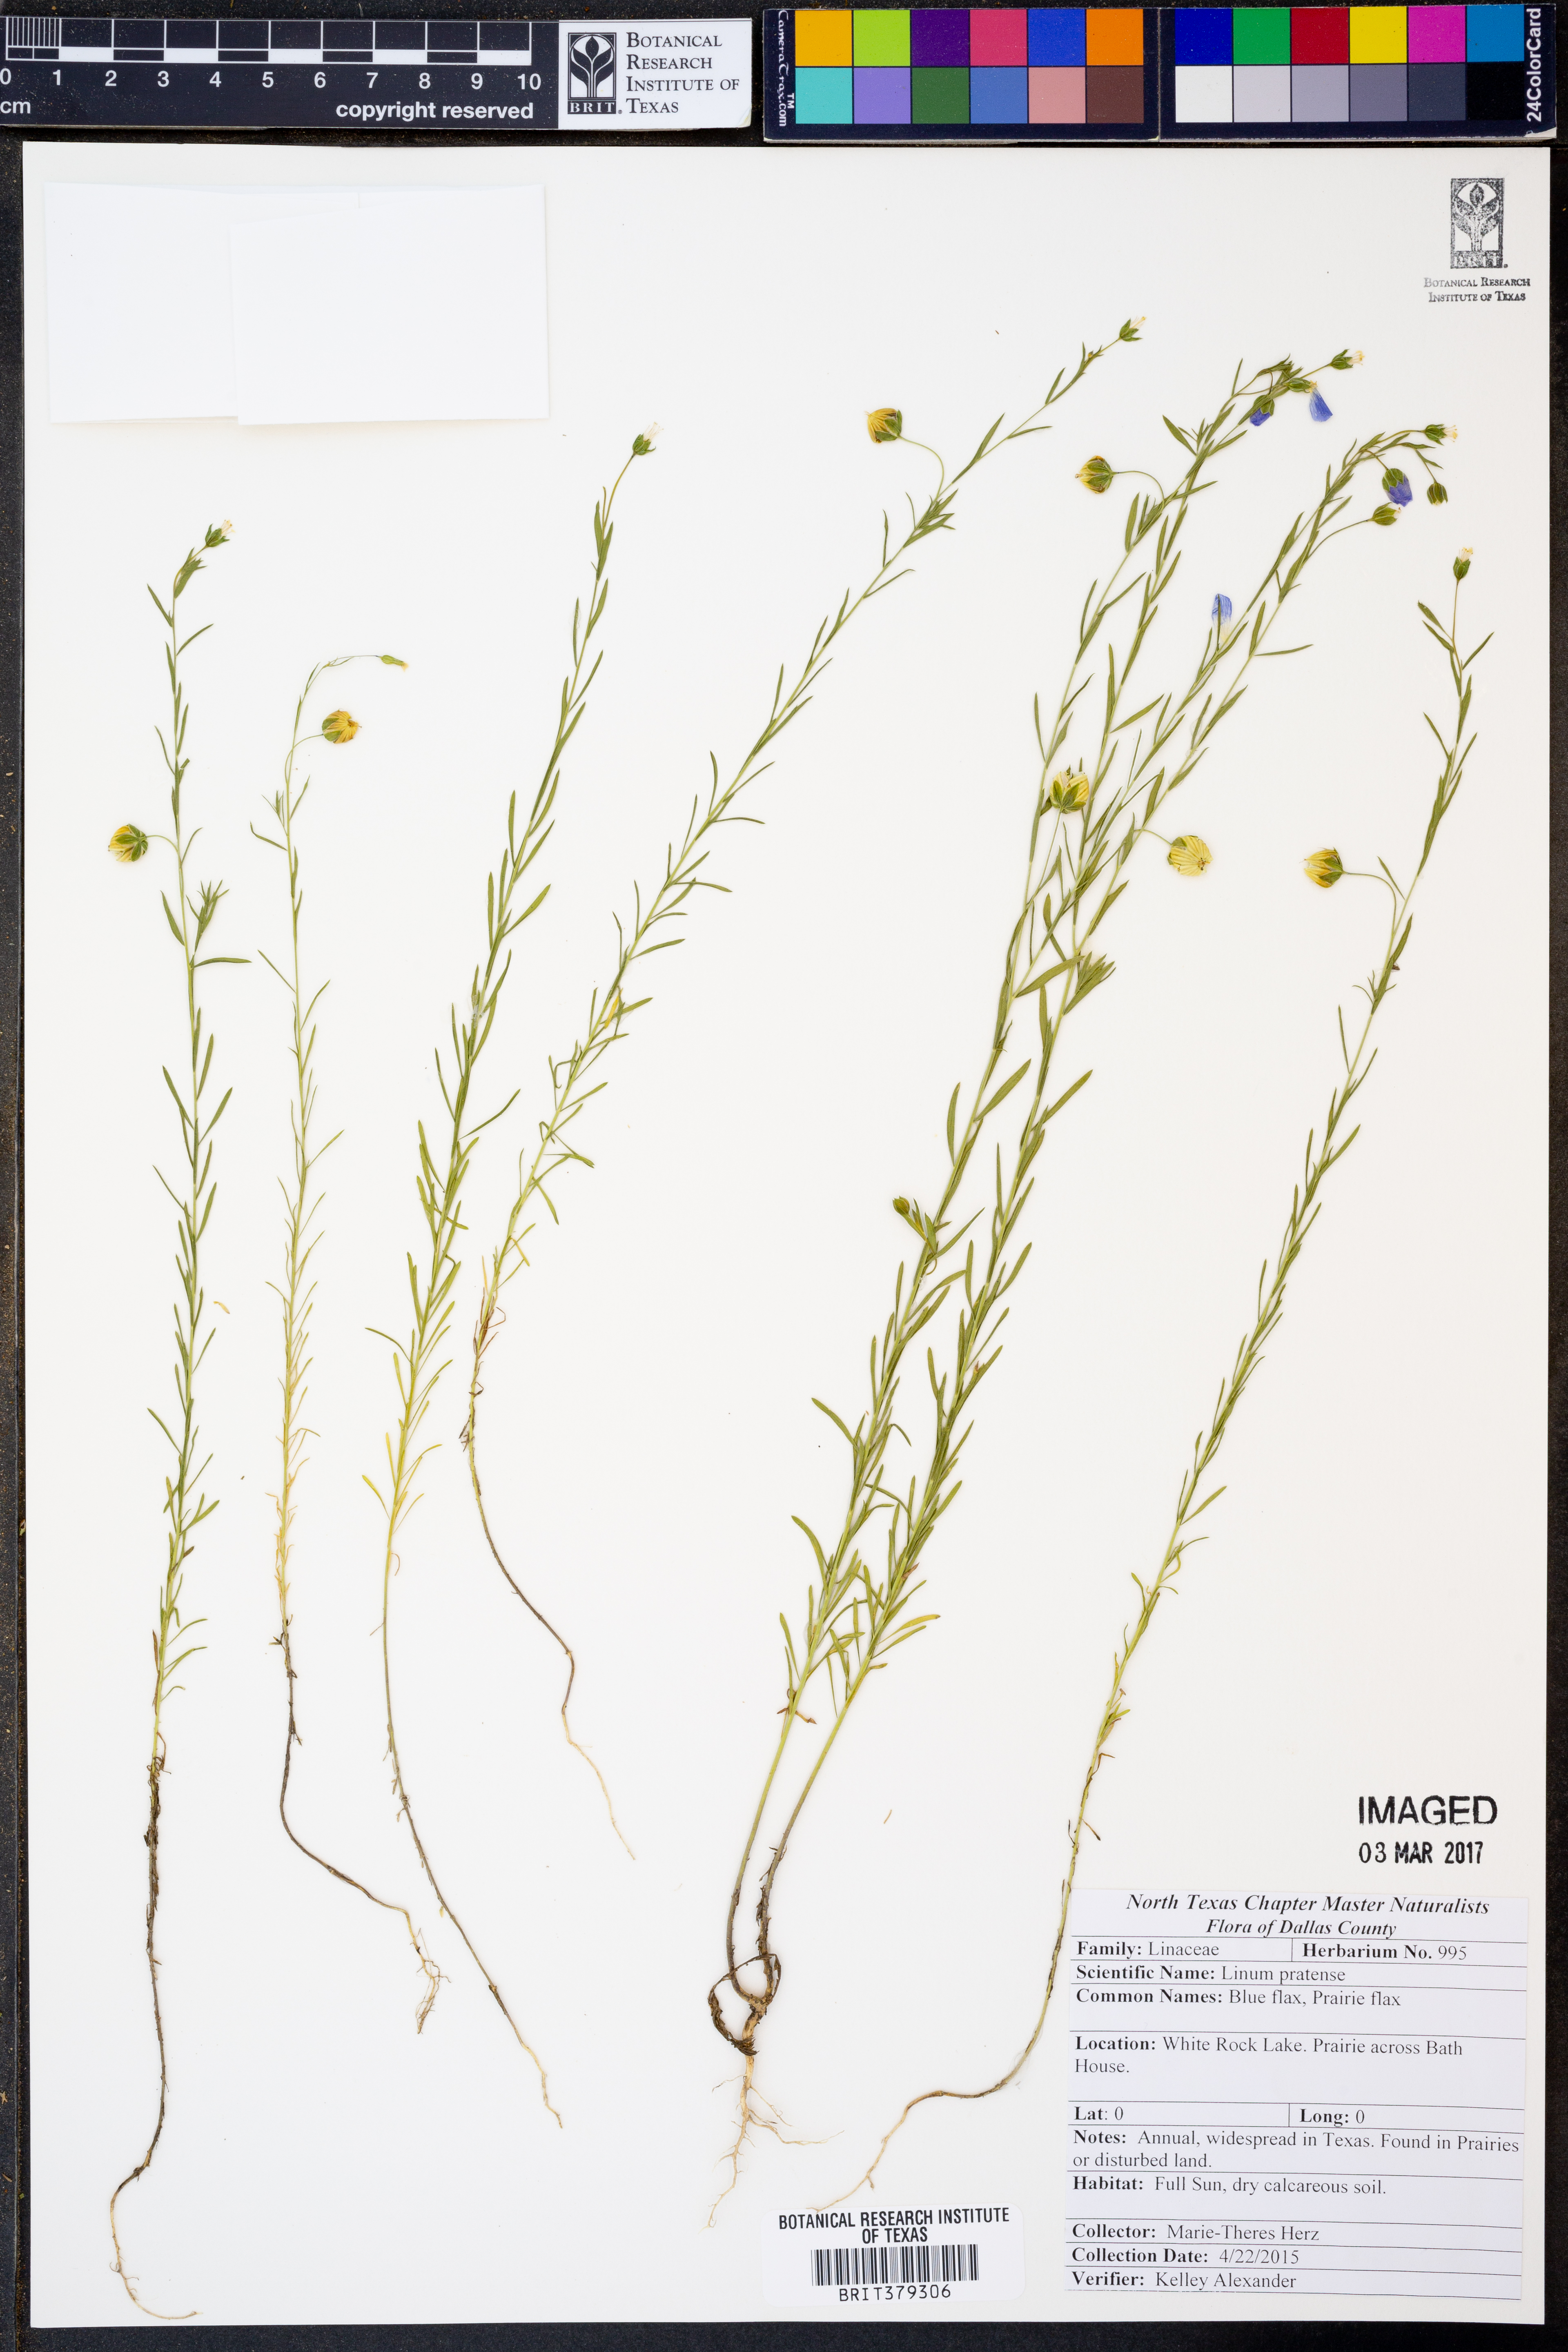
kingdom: Plantae
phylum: Tracheophyta
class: Magnoliopsida
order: Malpighiales
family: Linaceae
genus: Linum
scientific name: Linum pratense
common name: Norton's flax
